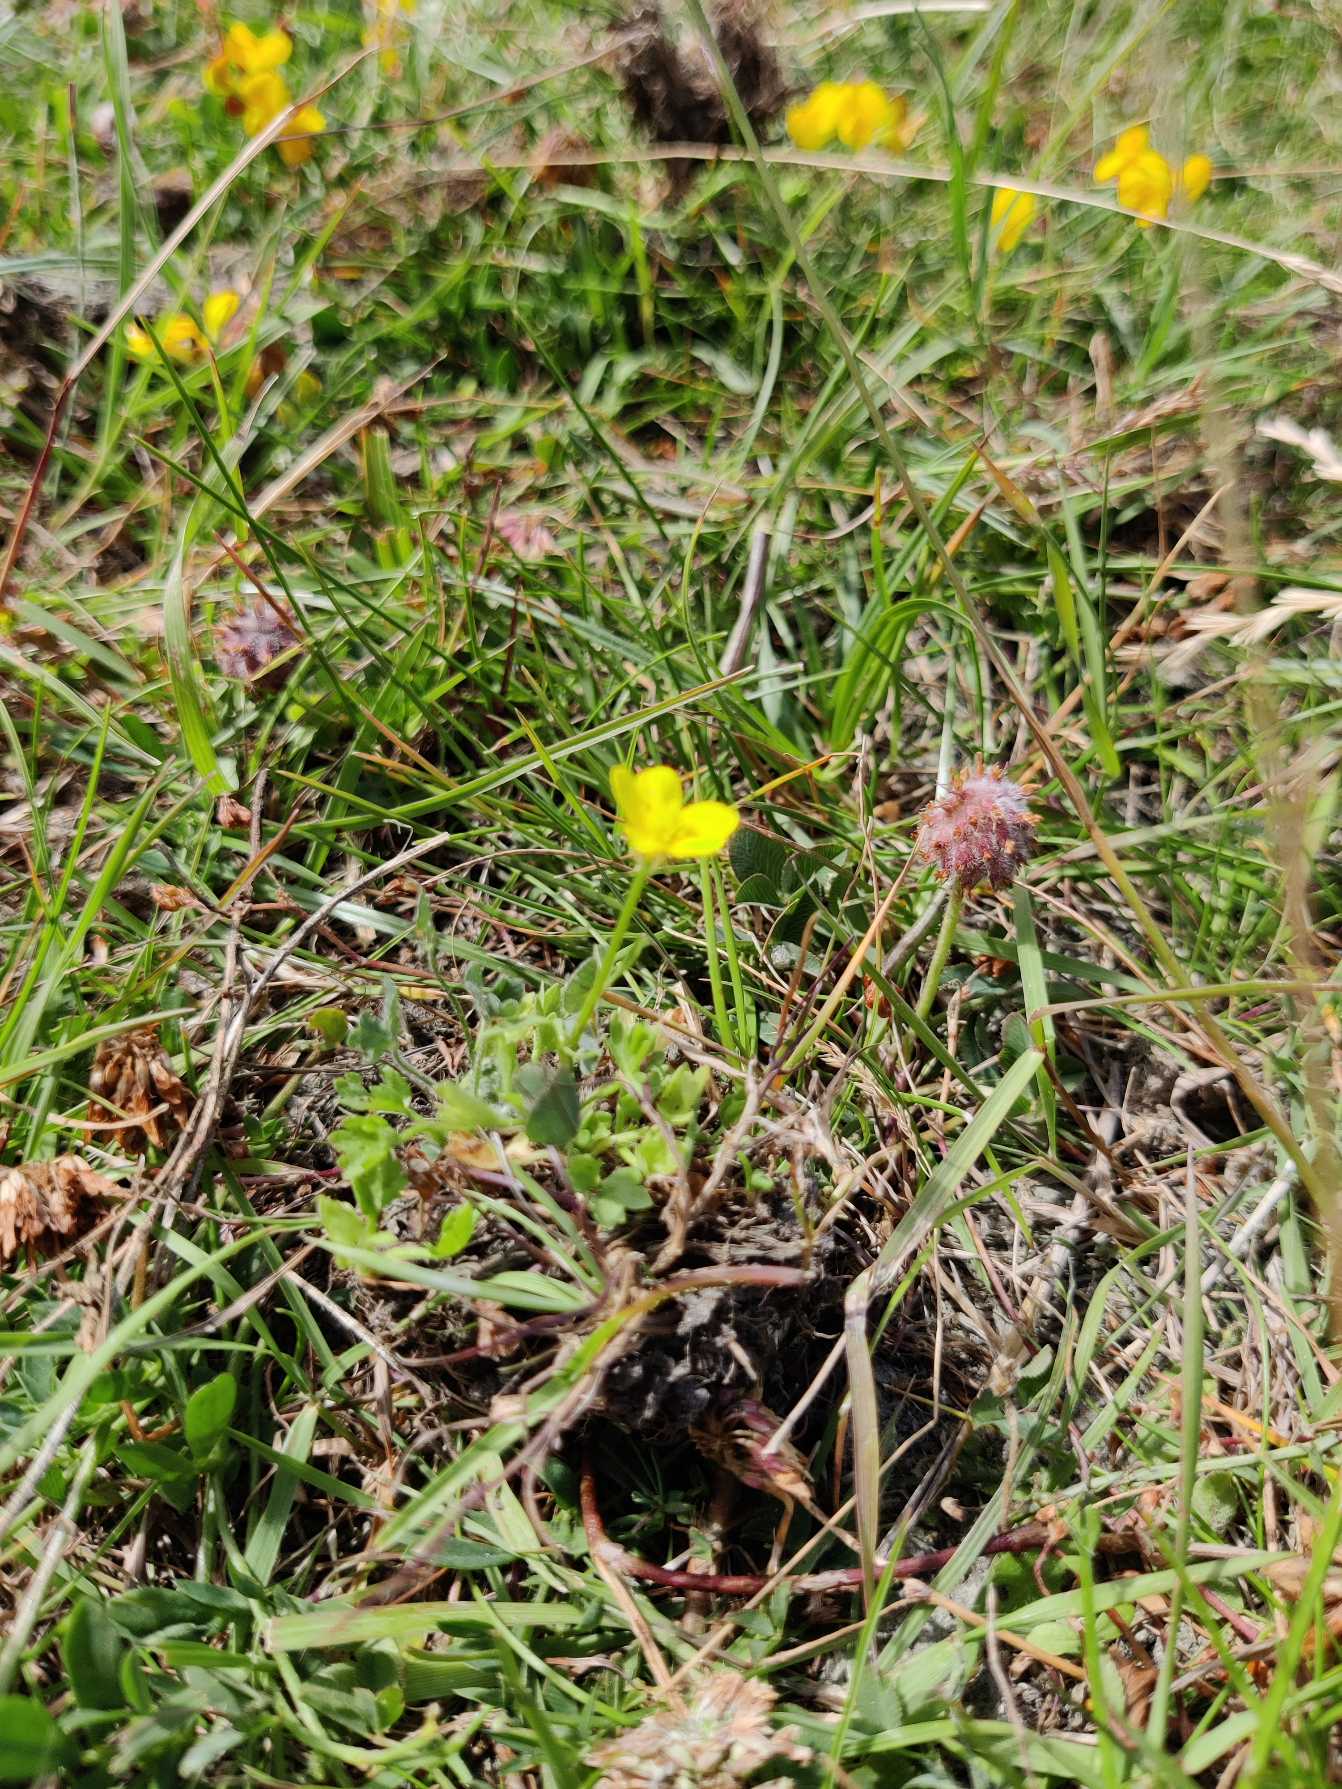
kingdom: Plantae
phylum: Tracheophyta
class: Magnoliopsida
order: Ranunculales
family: Ranunculaceae
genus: Ranunculus
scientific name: Ranunculus sardous
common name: Stivhåret ranunkel
